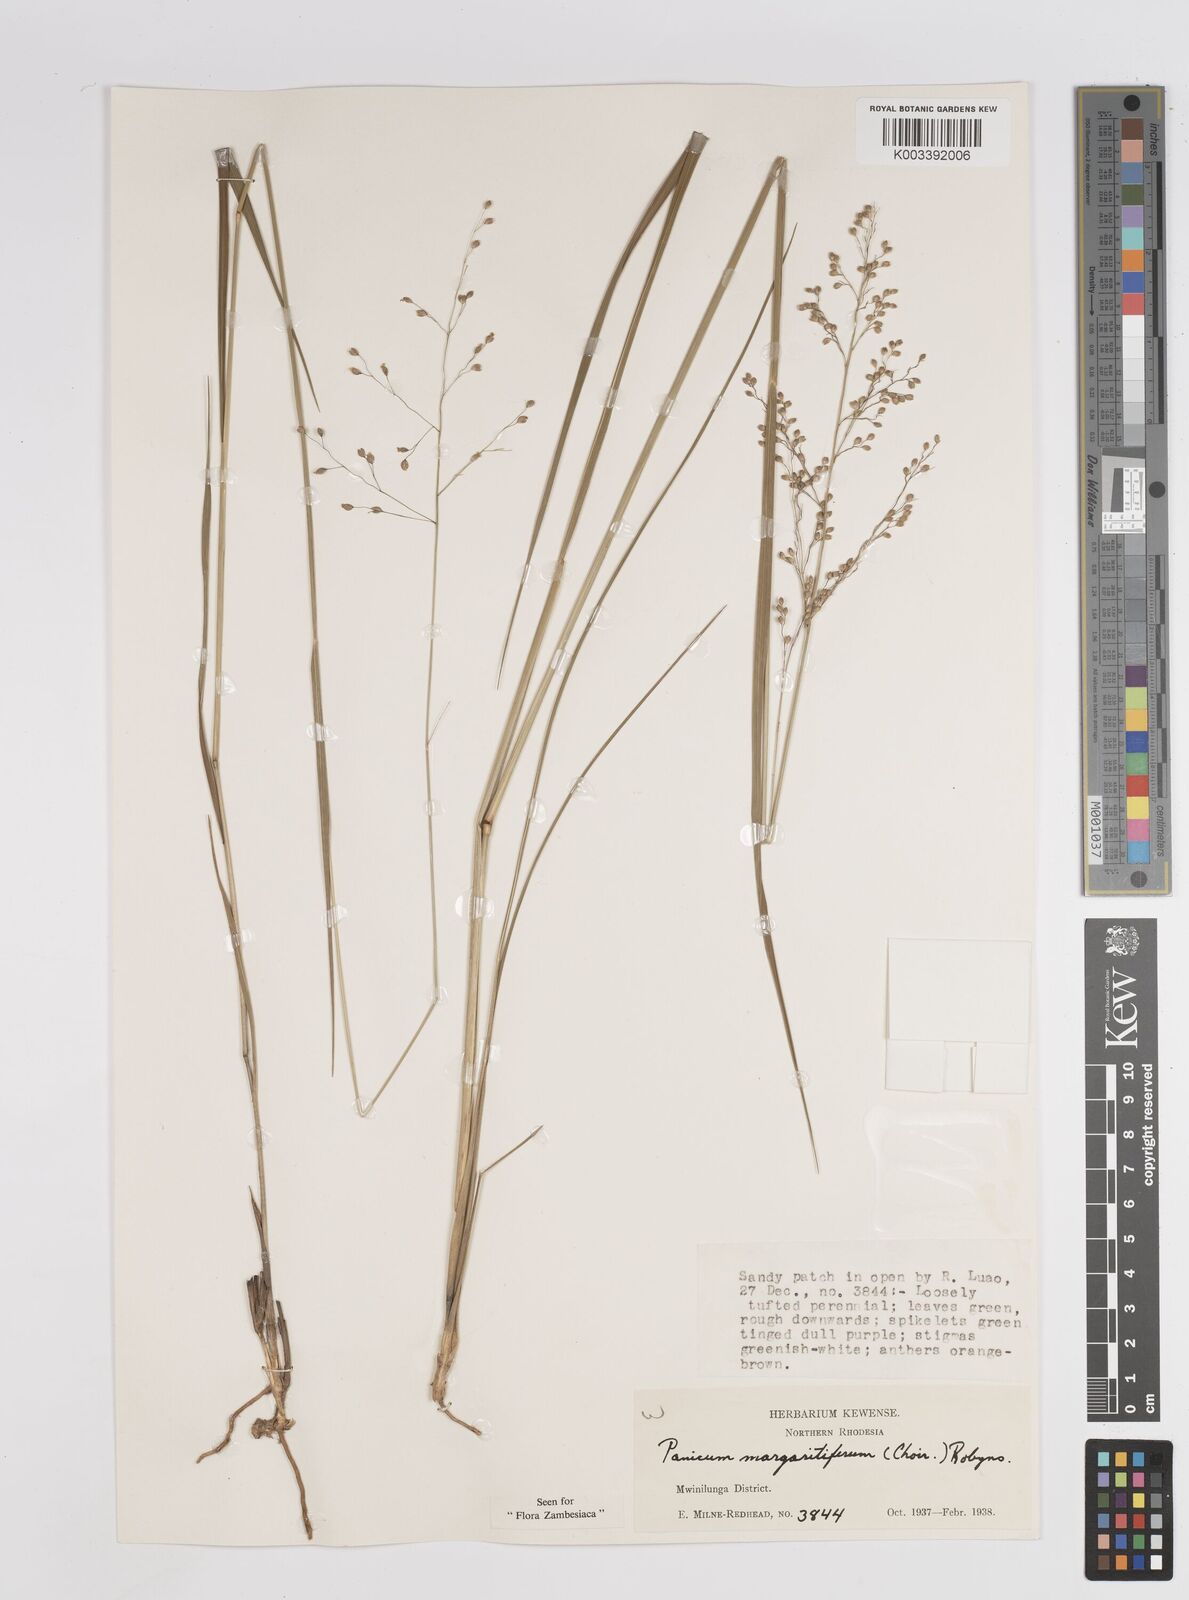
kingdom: Plantae
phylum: Tracheophyta
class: Liliopsida
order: Poales
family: Poaceae
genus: Sacciolepis
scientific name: Sacciolepis myuros
